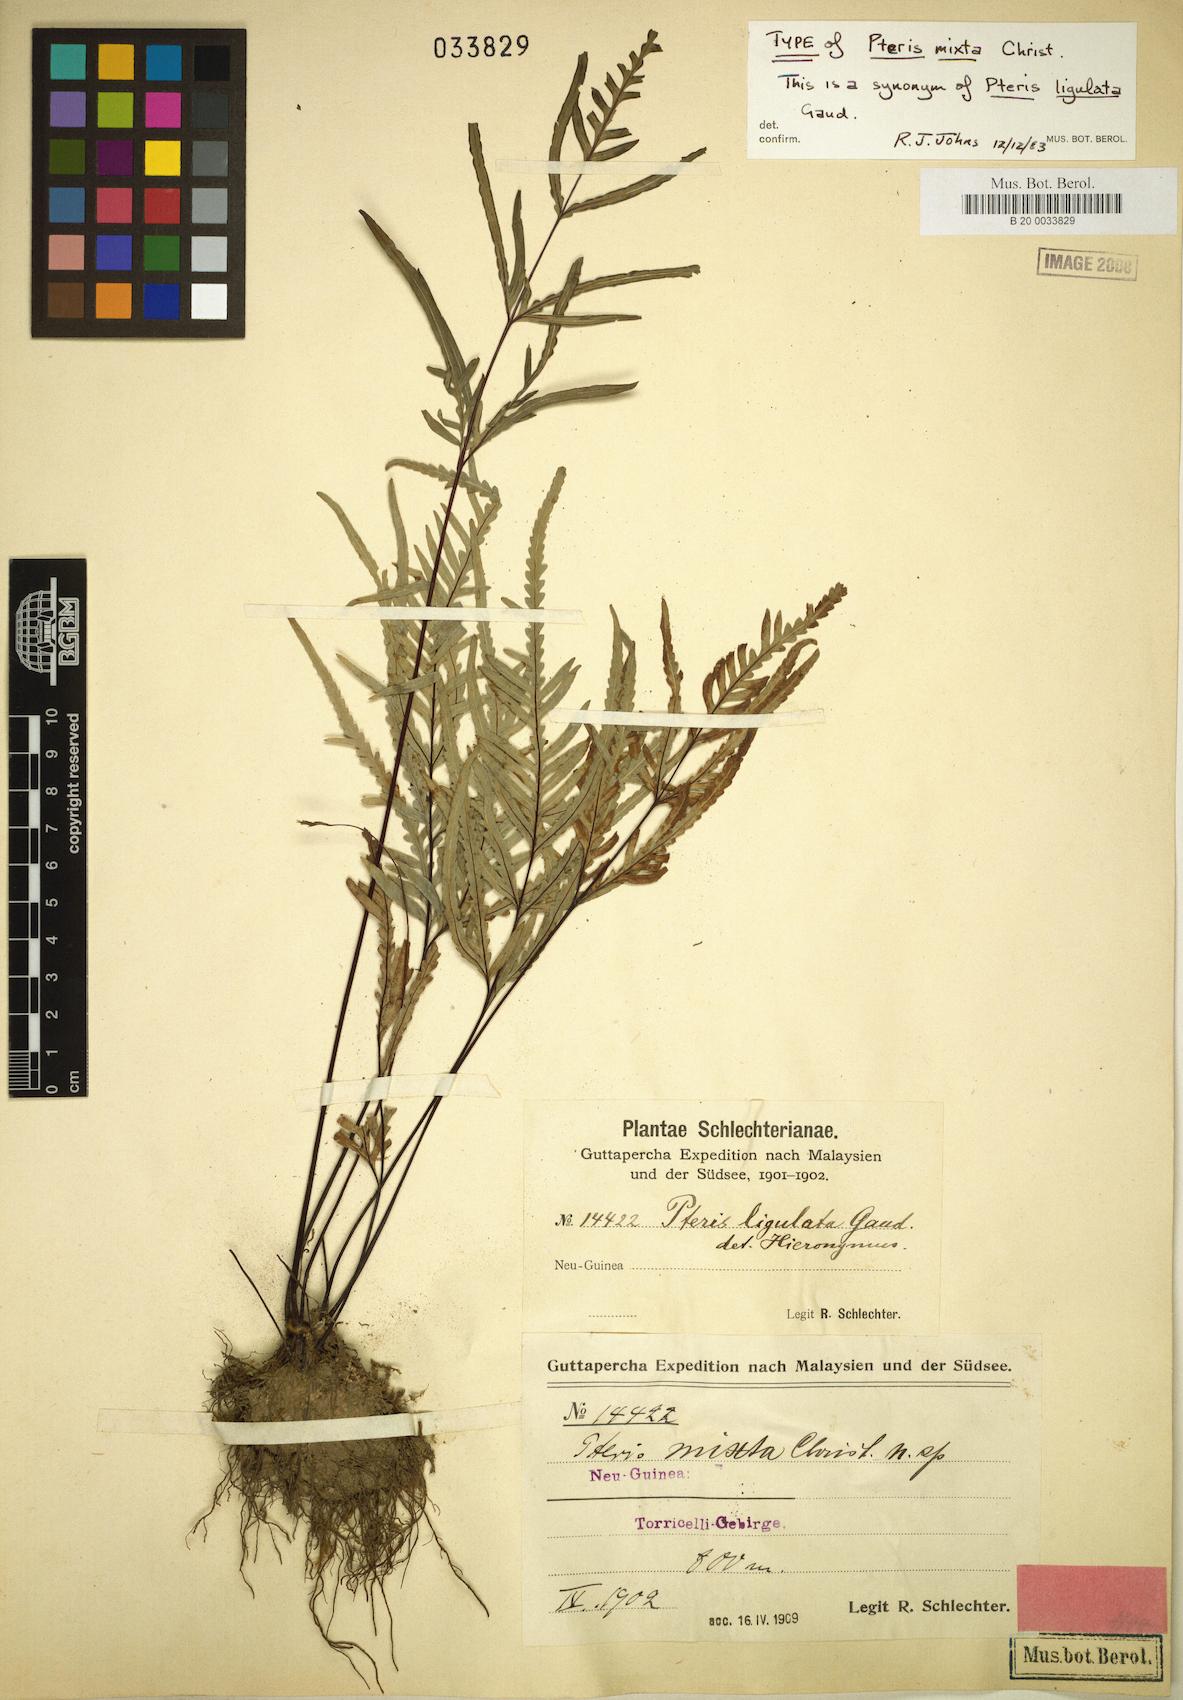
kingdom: Plantae
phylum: Tracheophyta
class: Polypodiopsida
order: Polypodiales
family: Pteridaceae
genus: Pteris
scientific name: Pteris ligulata
